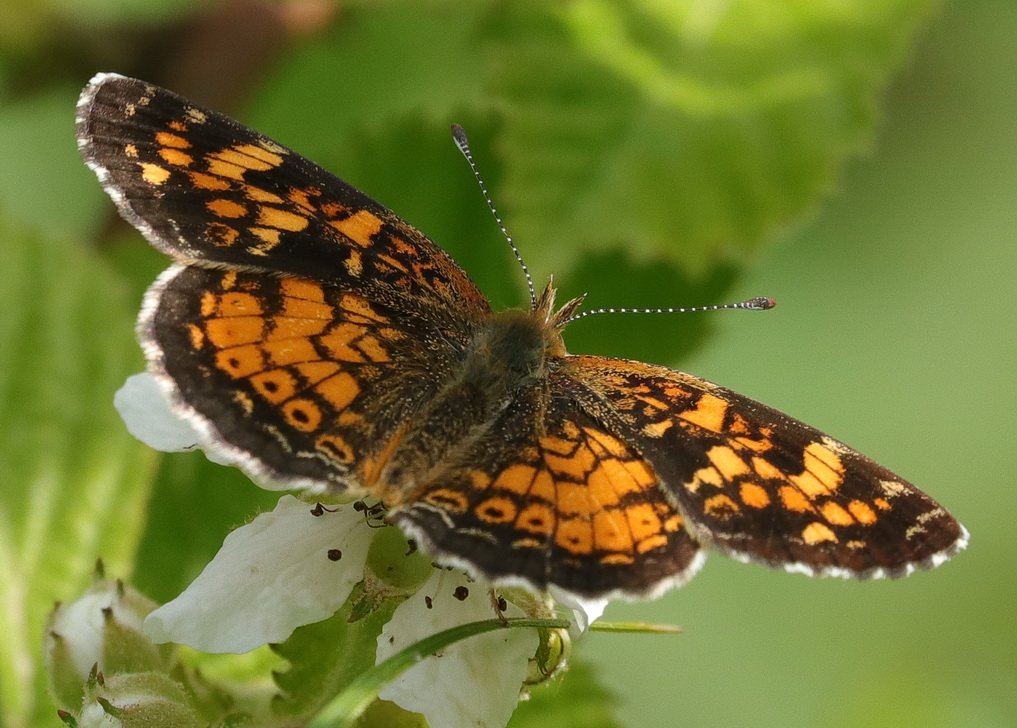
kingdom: Animalia
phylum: Arthropoda
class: Insecta
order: Lepidoptera
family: Nymphalidae
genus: Phyciodes
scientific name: Phyciodes batesii
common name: Tawny Crescent
